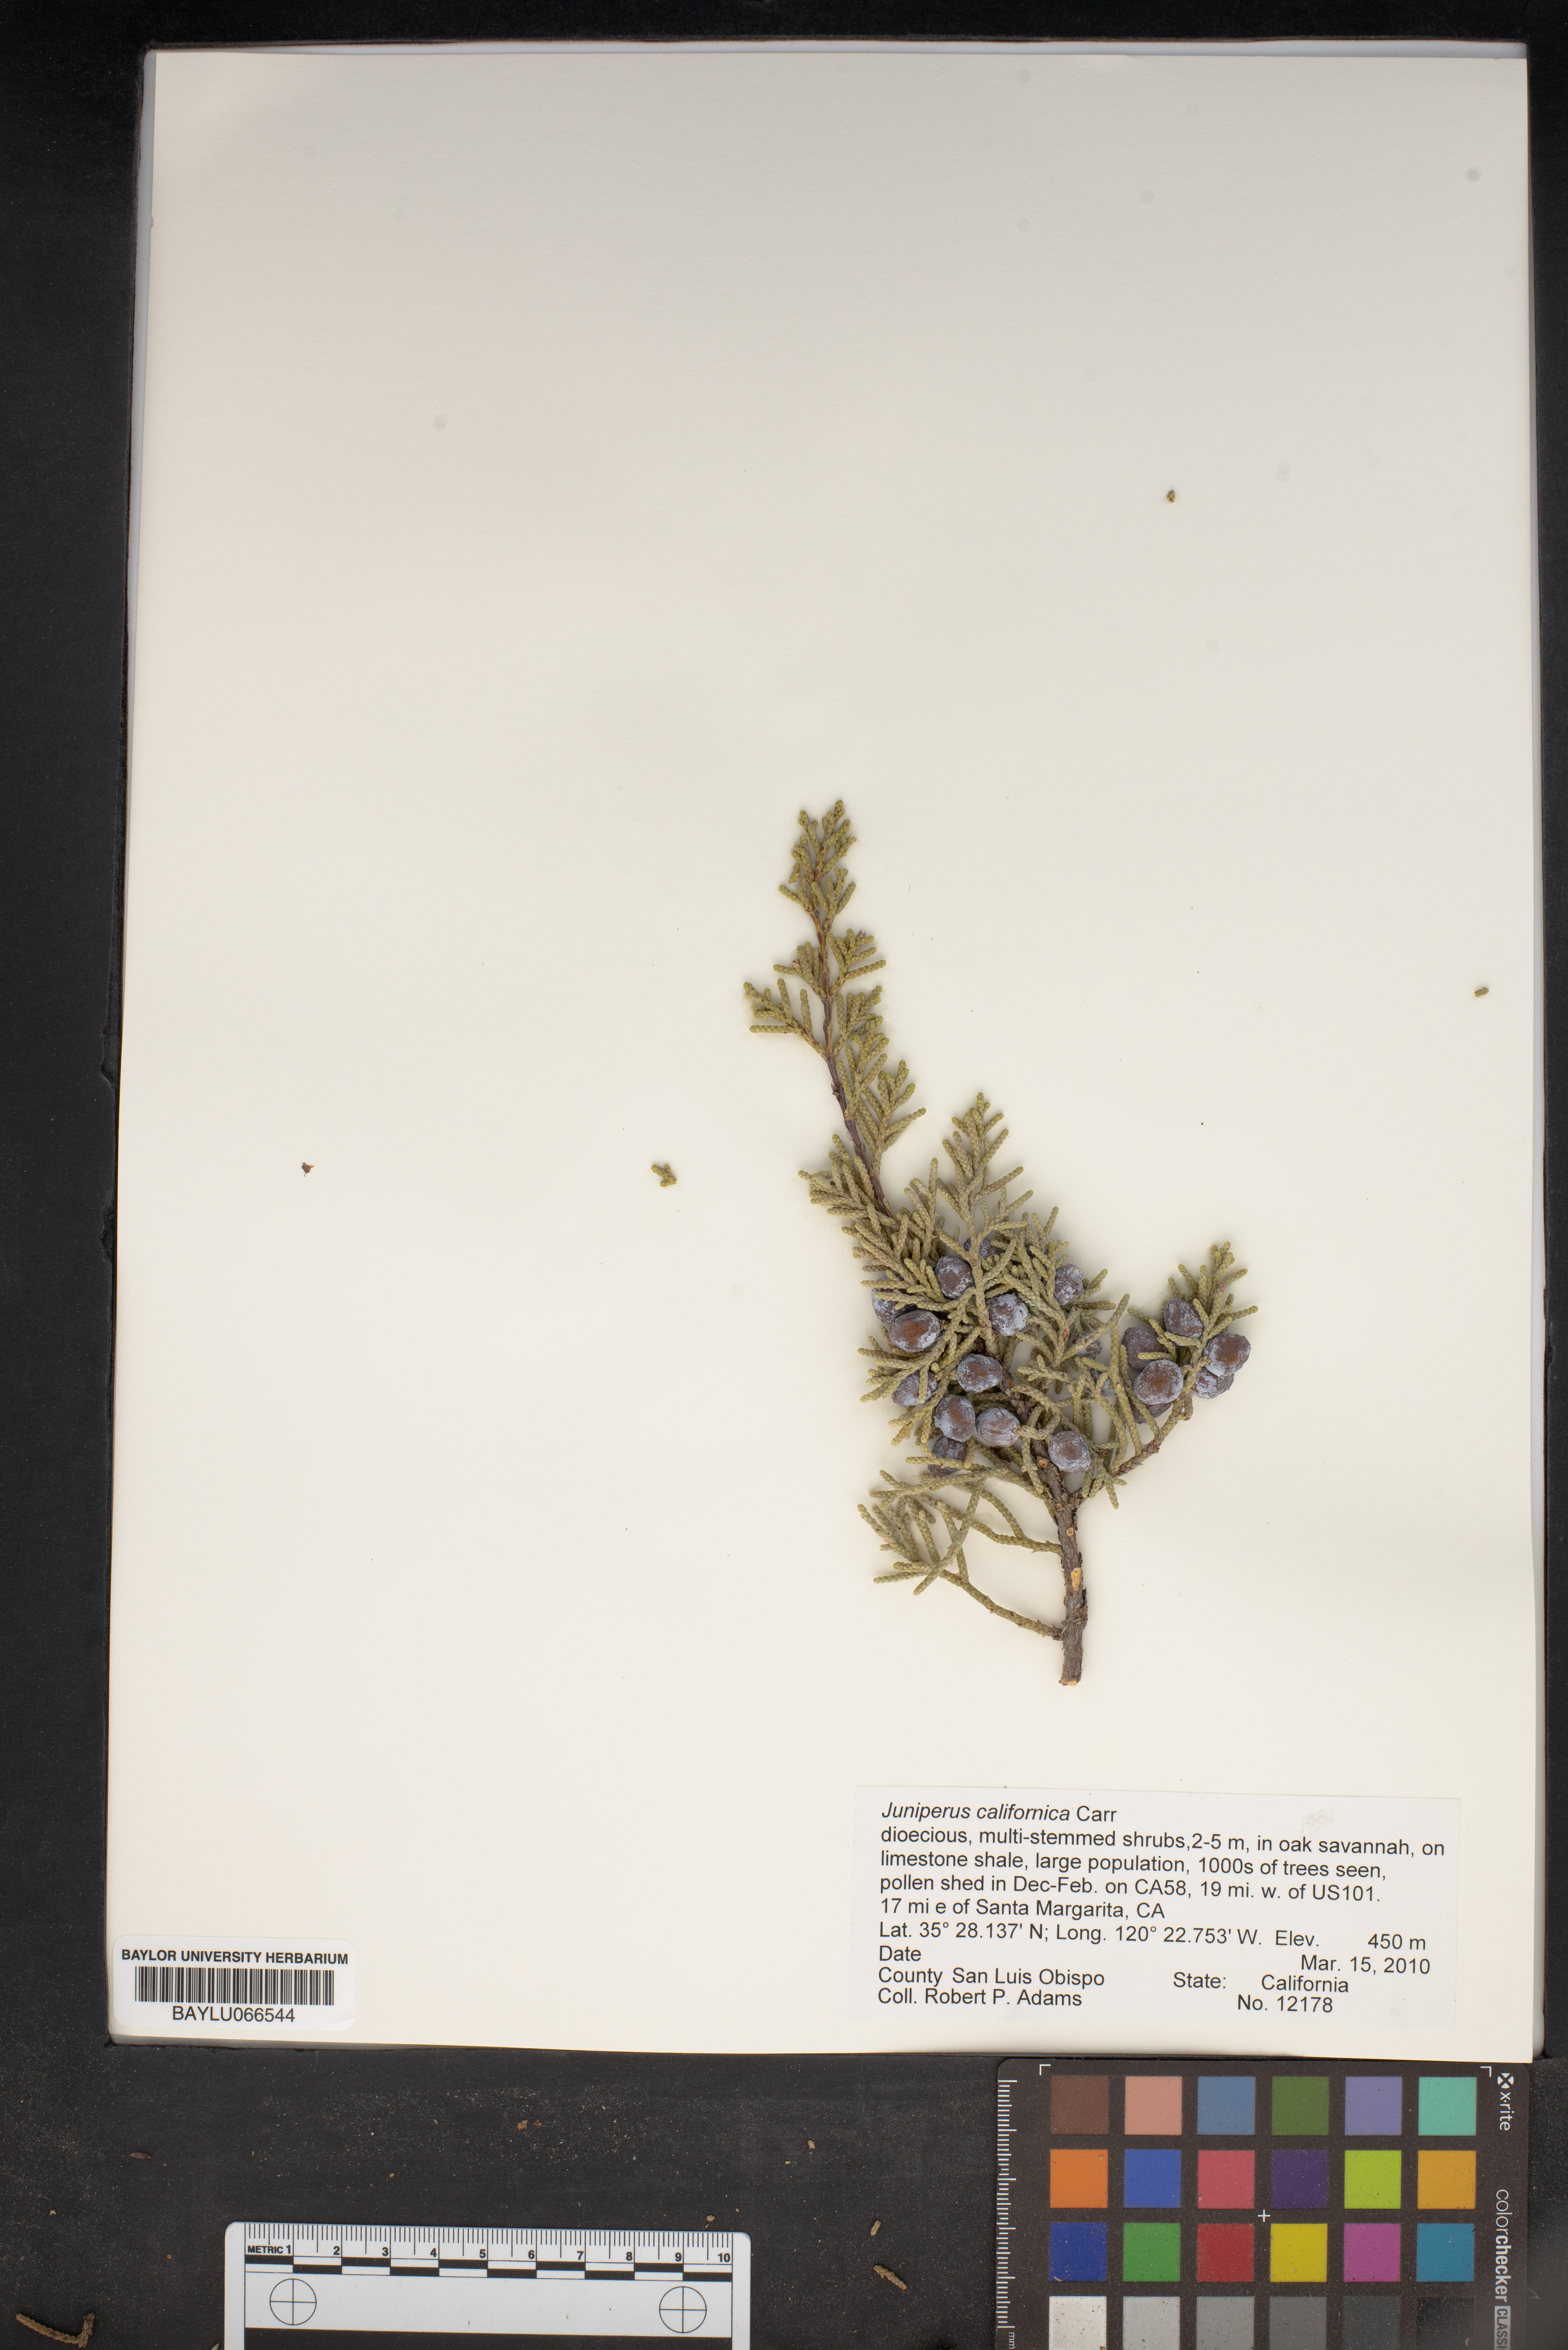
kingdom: Plantae
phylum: Tracheophyta
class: Pinopsida
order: Pinales
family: Cupressaceae
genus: Juniperus
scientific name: Juniperus californica
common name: California juniper
